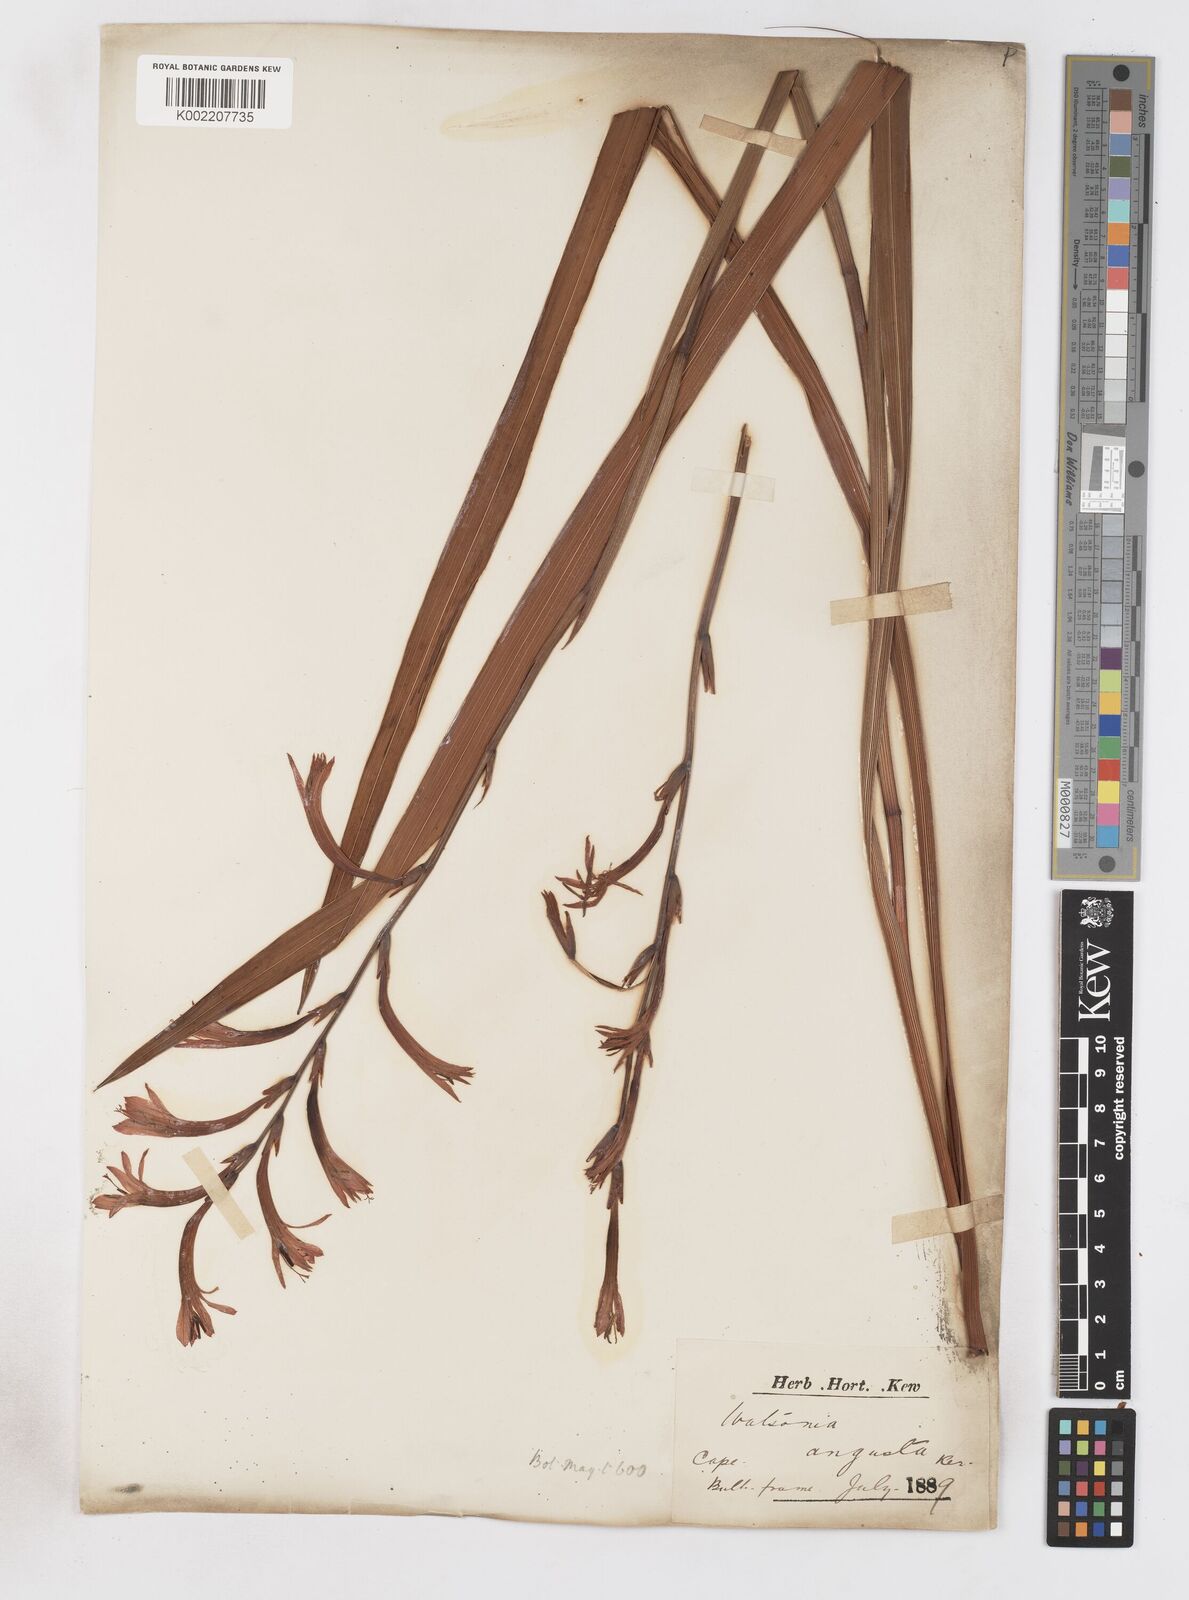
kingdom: Plantae
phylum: Tracheophyta
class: Liliopsida
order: Asparagales
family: Iridaceae
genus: Watsonia
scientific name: Watsonia angusta
